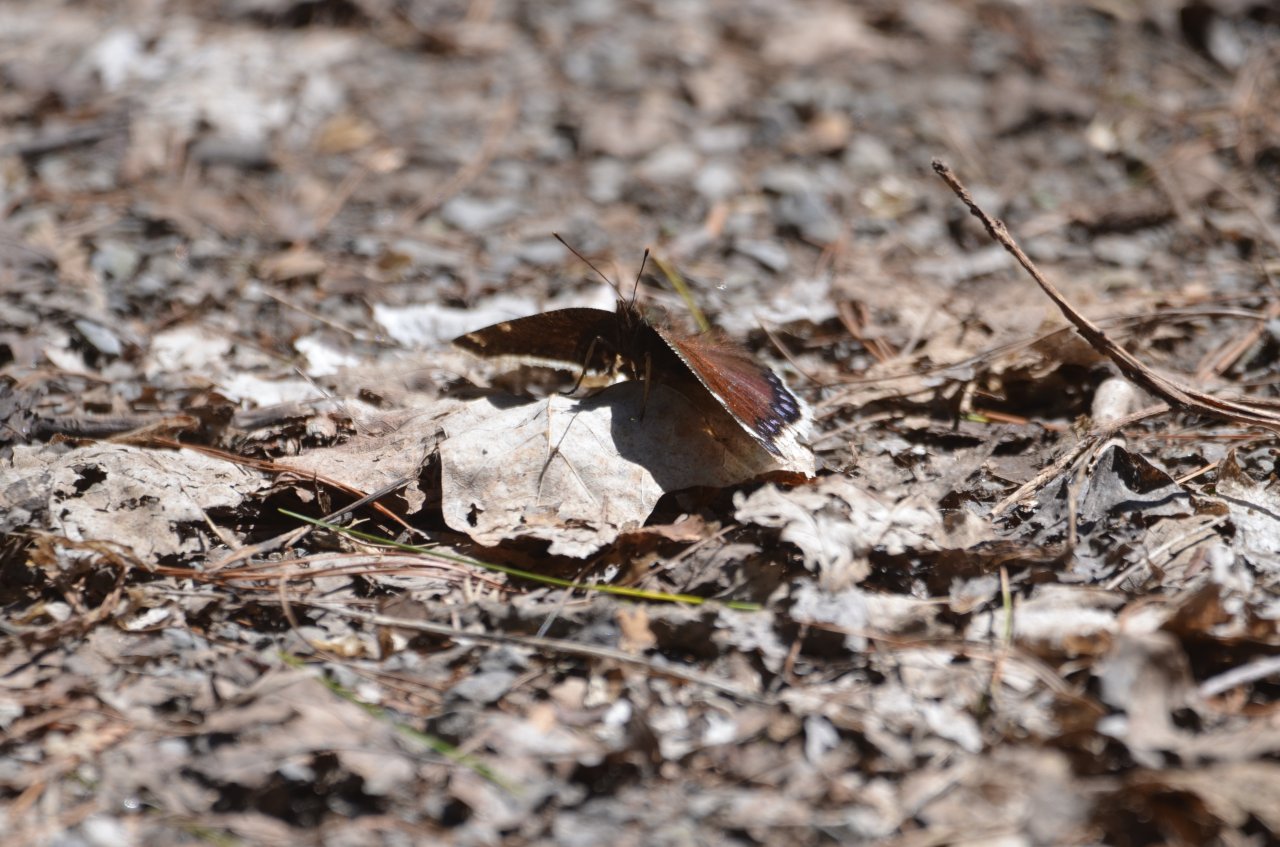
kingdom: Animalia
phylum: Arthropoda
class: Insecta
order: Lepidoptera
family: Nymphalidae
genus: Nymphalis
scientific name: Nymphalis antiopa
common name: Mourning Cloak
